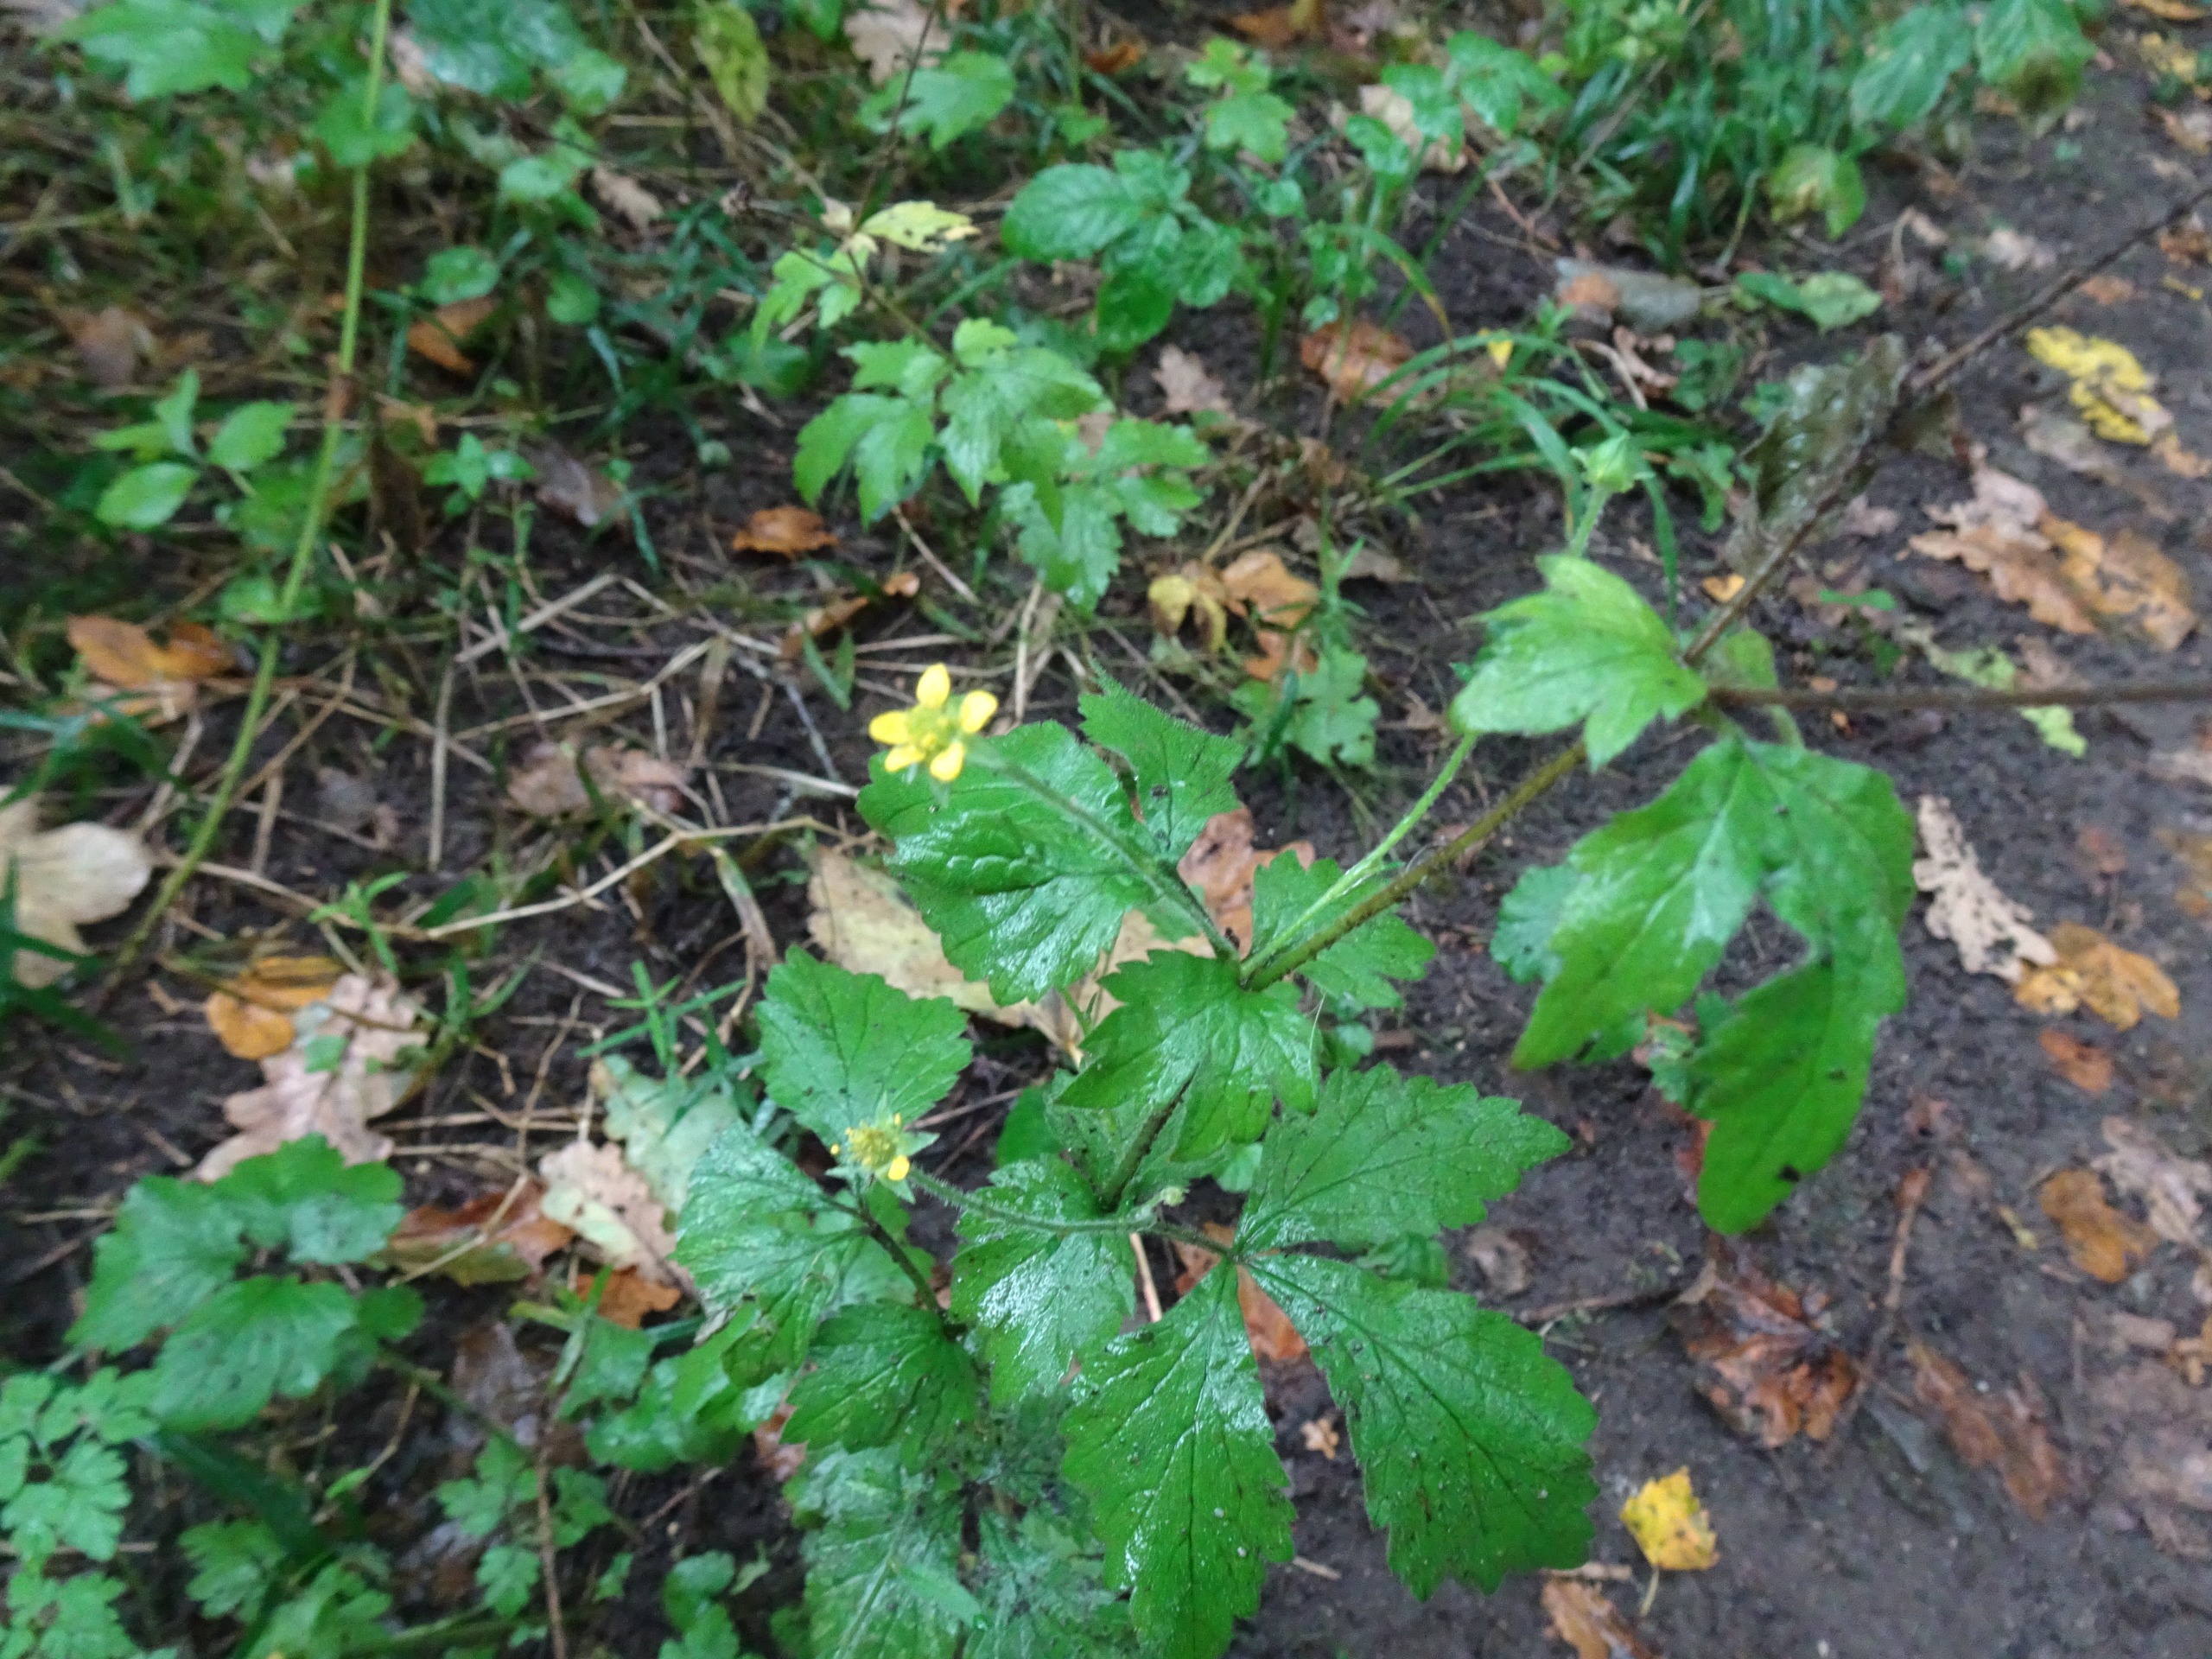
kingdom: Plantae
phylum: Tracheophyta
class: Magnoliopsida
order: Rosales
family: Rosaceae
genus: Geum
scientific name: Geum urbanum
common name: Feber-nellikerod
